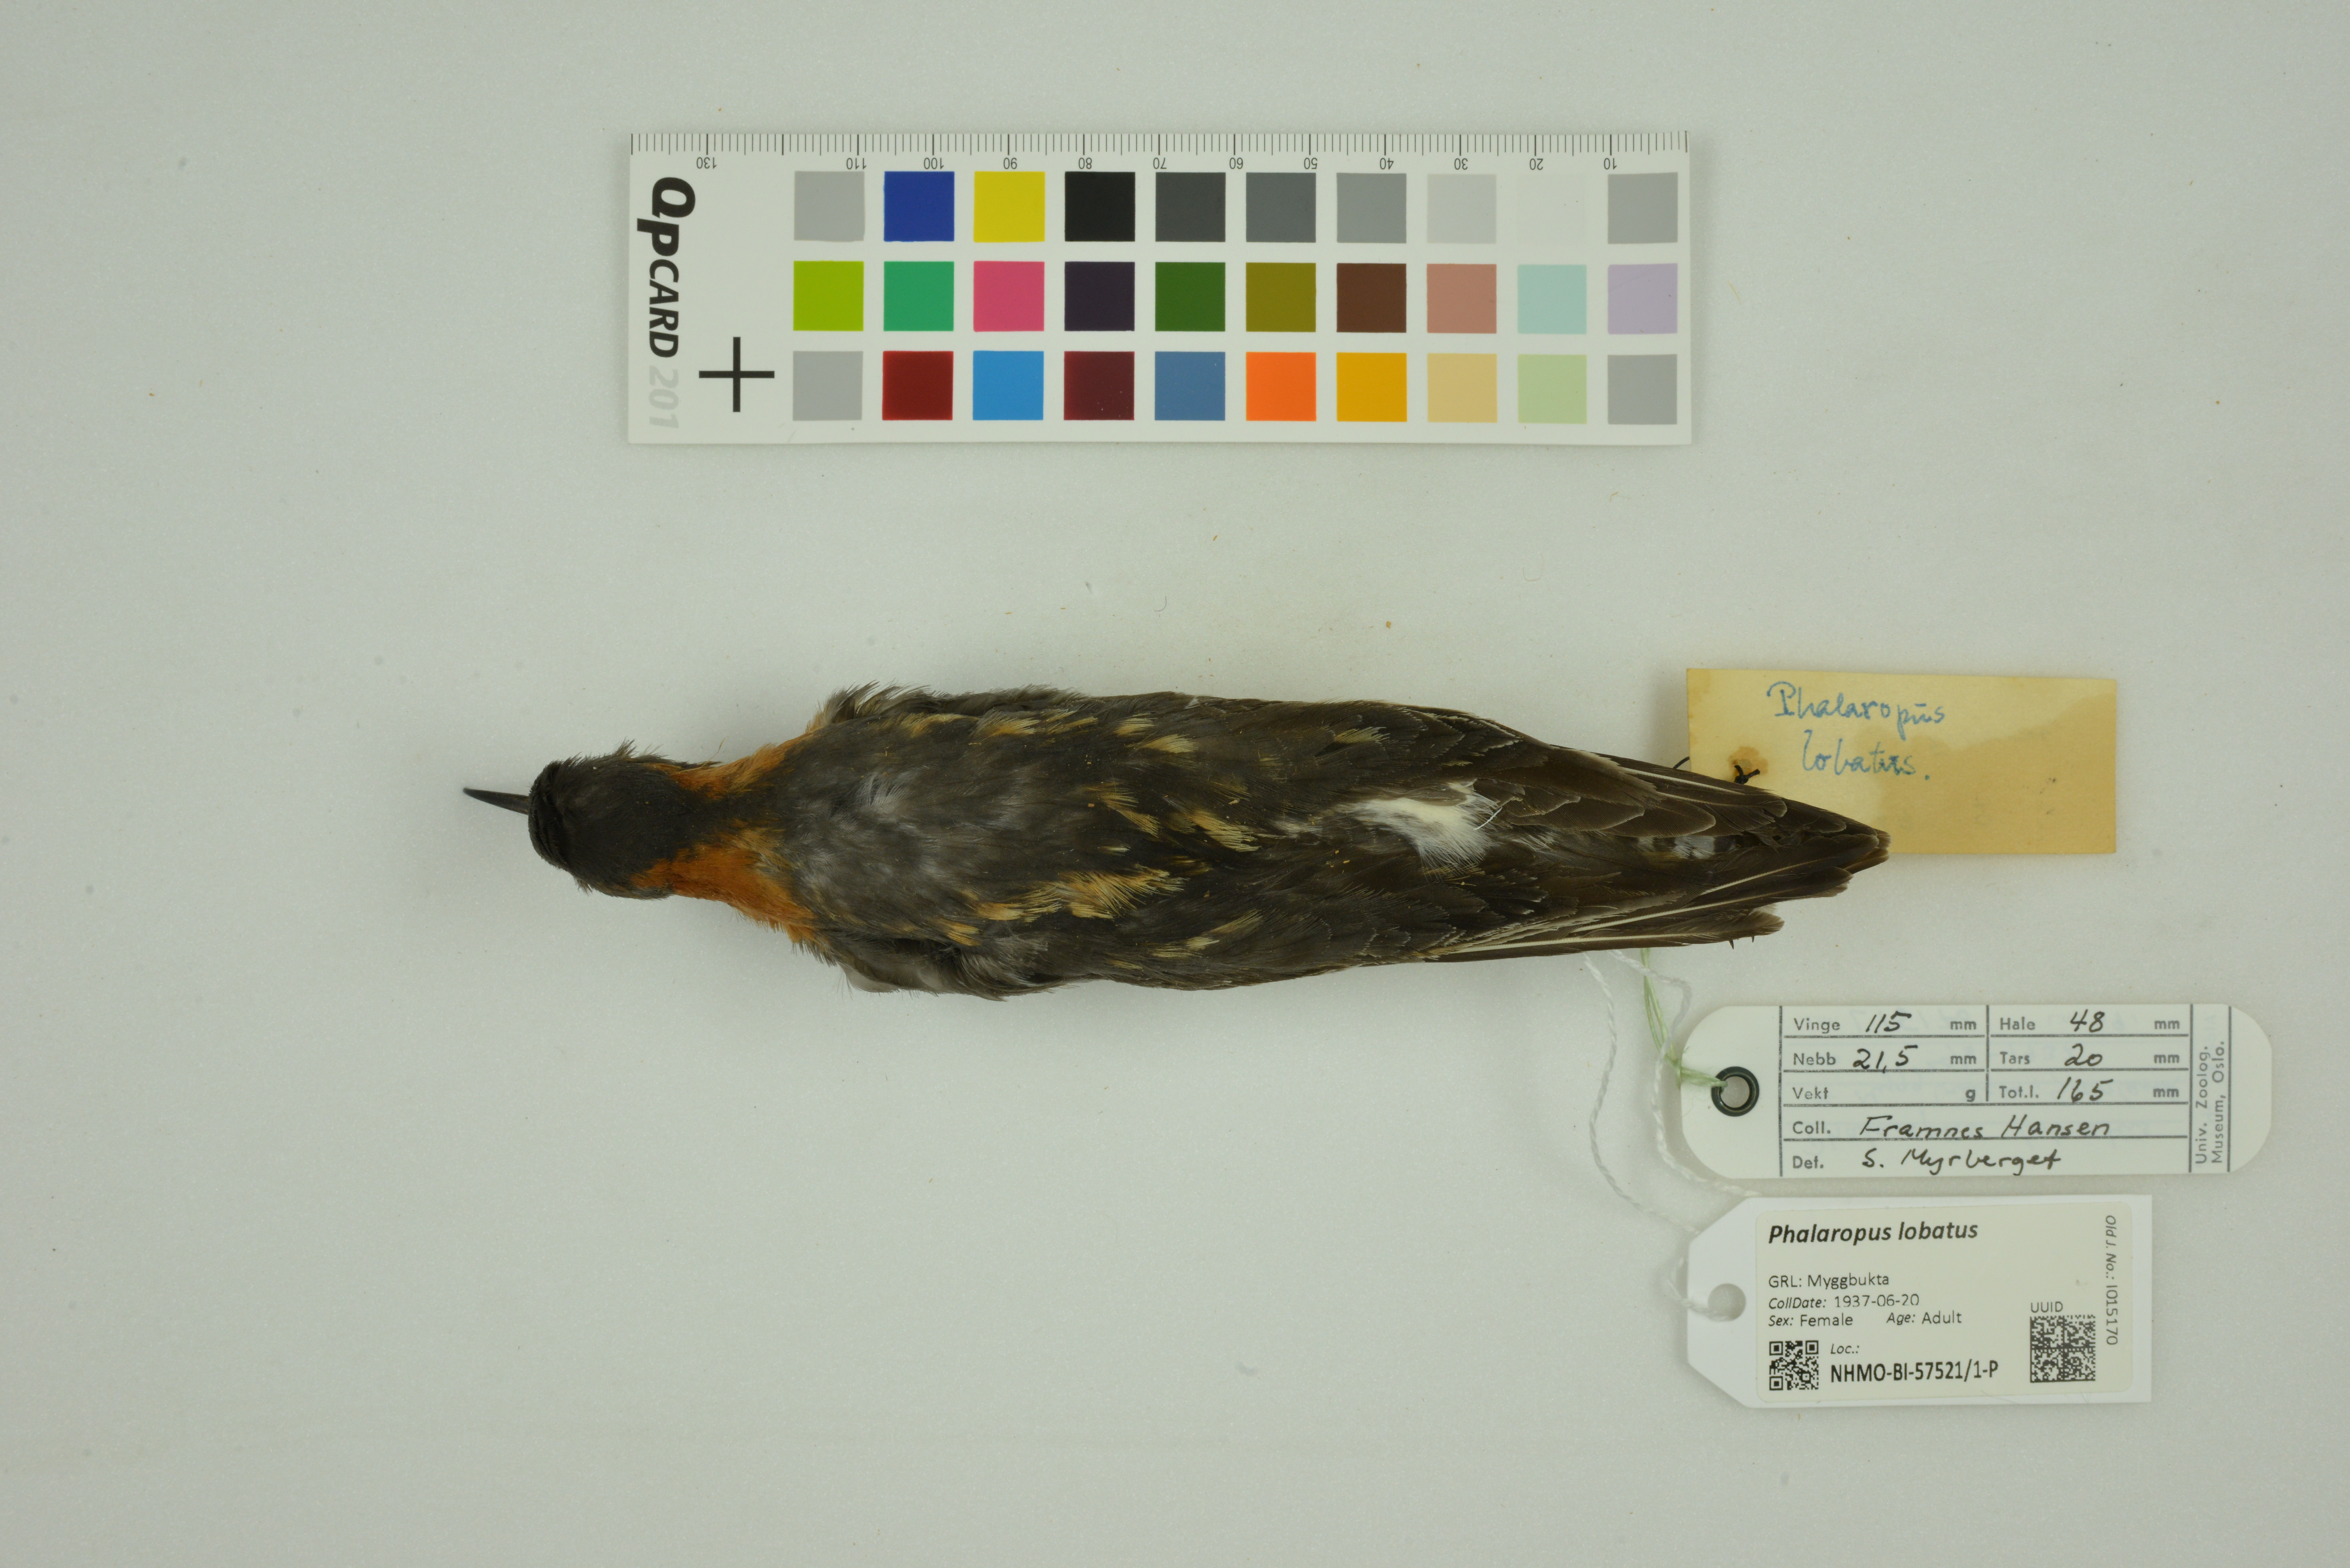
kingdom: Animalia
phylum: Chordata
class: Aves
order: Charadriiformes
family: Scolopacidae
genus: Phalaropus
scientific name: Phalaropus lobatus
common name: Red-necked phalarope
